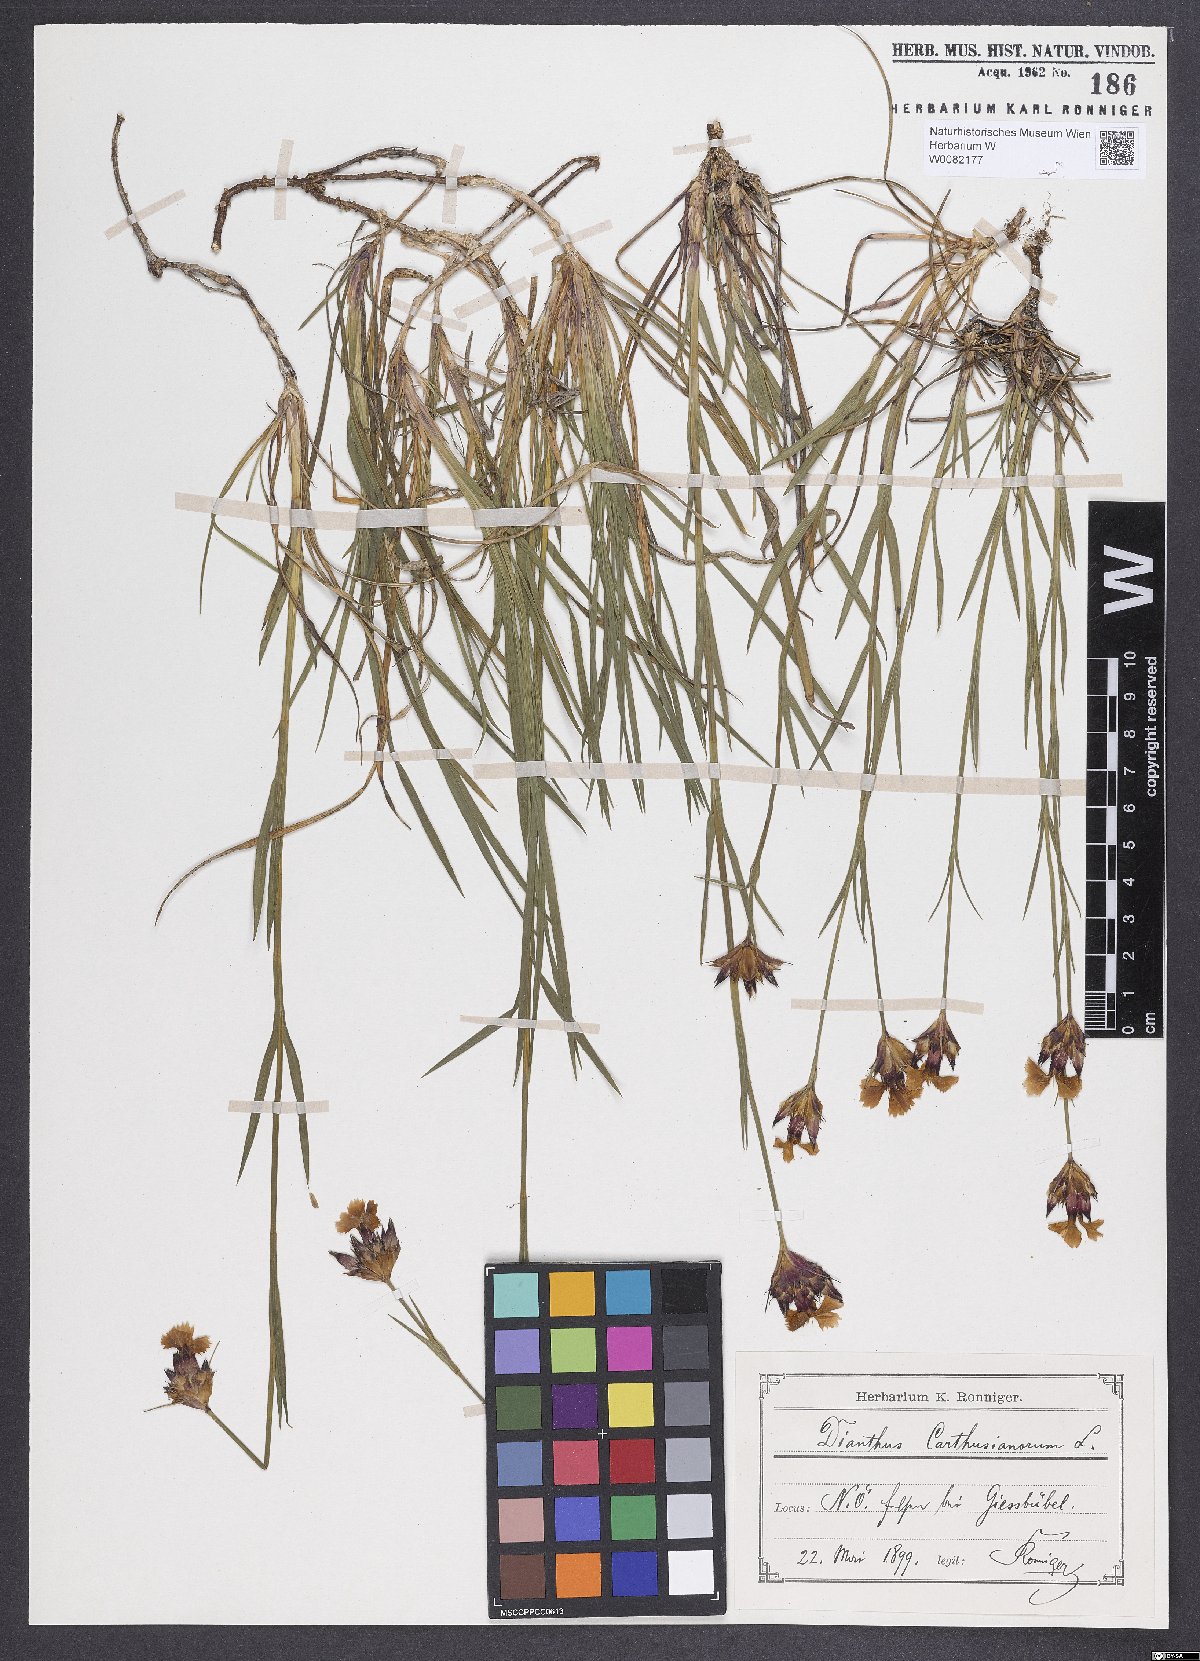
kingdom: Plantae
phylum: Tracheophyta
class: Magnoliopsida
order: Caryophyllales
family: Caryophyllaceae
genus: Dianthus
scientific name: Dianthus carthusianorum
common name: Carthusian pink
